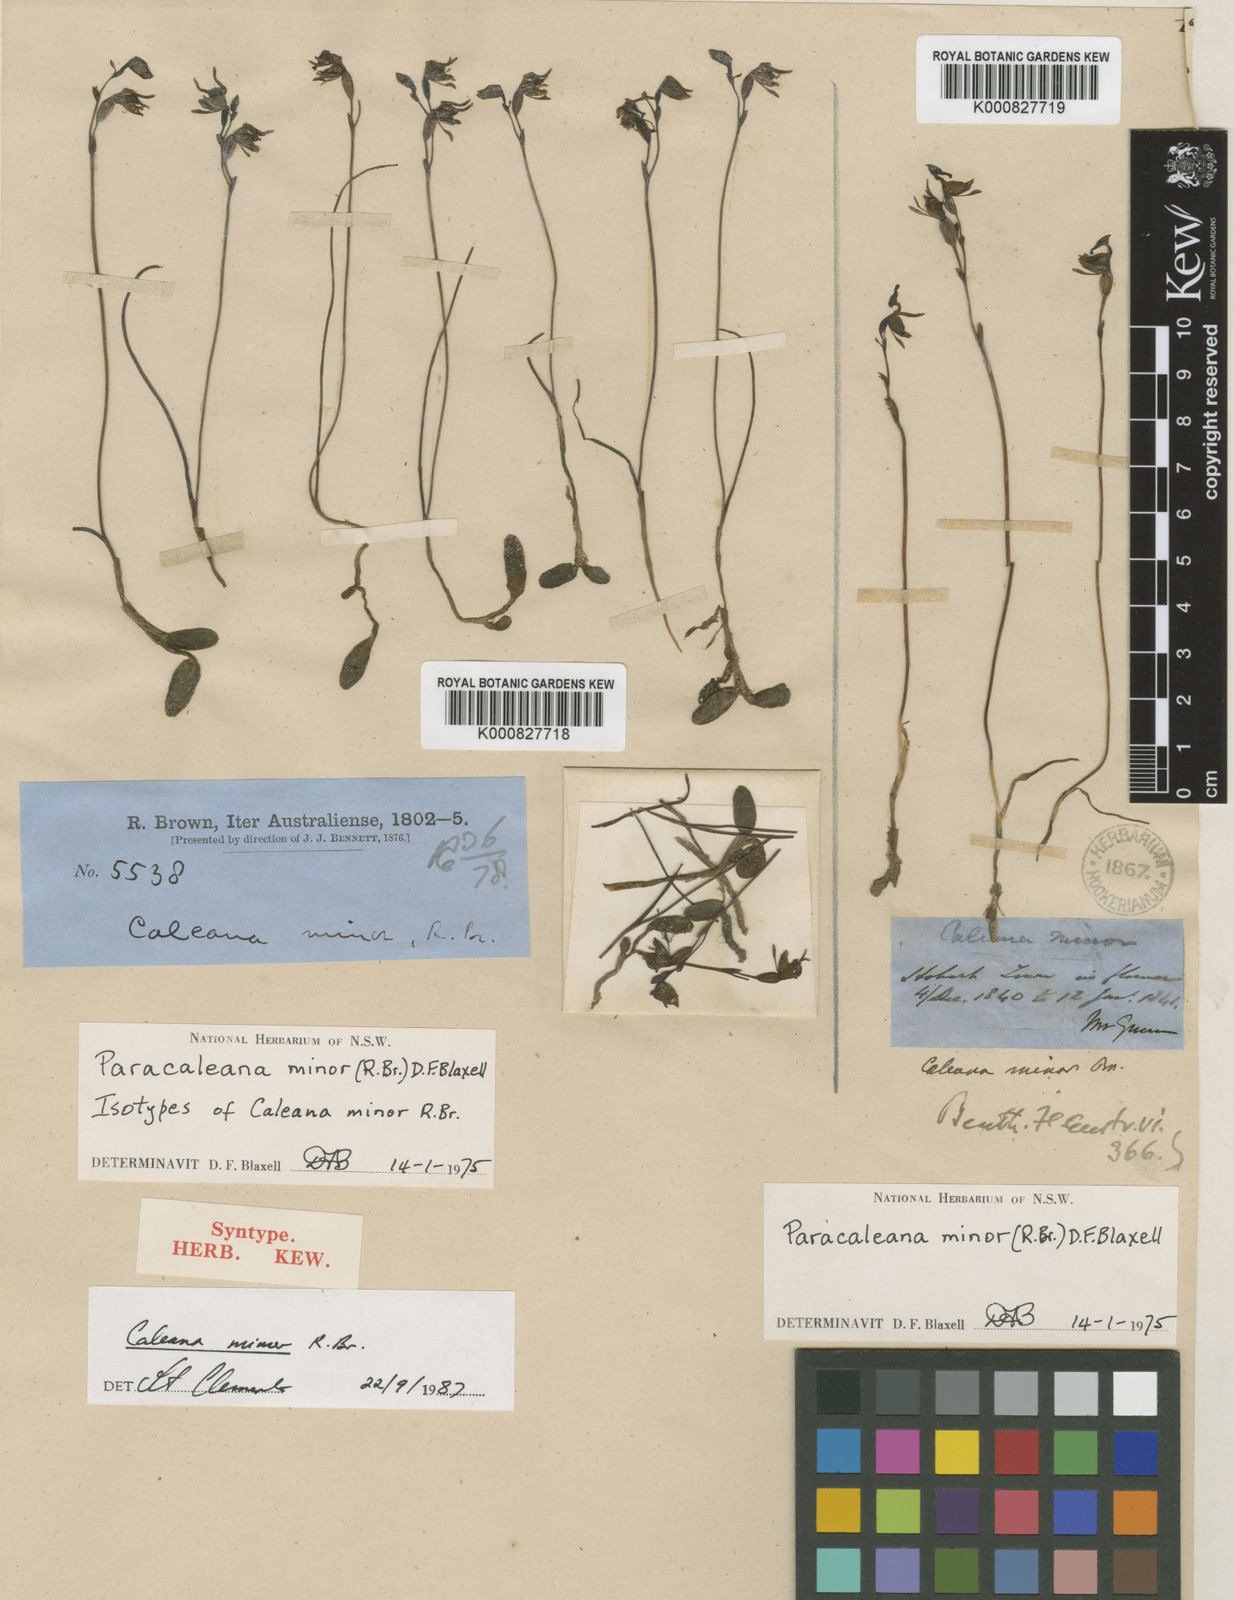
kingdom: Plantae
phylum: Tracheophyta
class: Liliopsida
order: Asparagales
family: Orchidaceae
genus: Caleana
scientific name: Caleana minor
